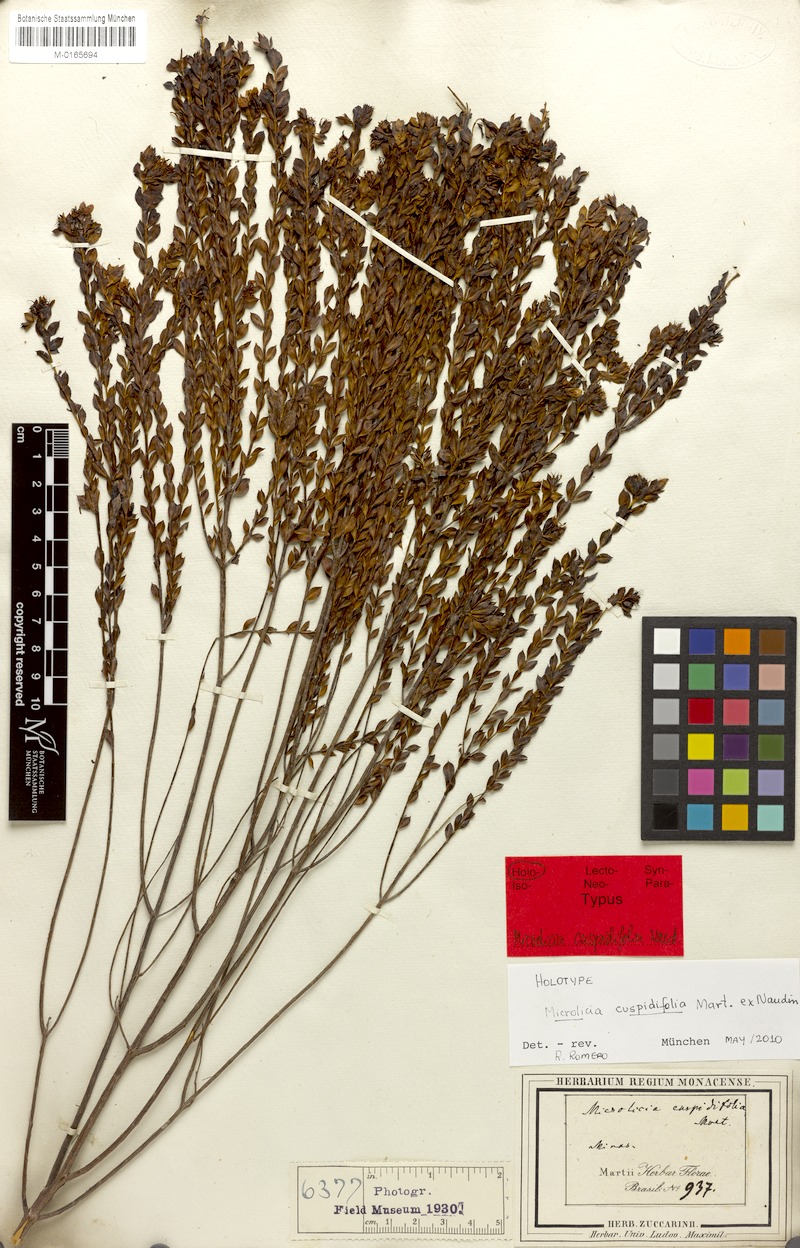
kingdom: Plantae
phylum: Tracheophyta
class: Magnoliopsida
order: Myrtales
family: Melastomataceae
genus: Microlicia
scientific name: Microlicia cuspidifolia
